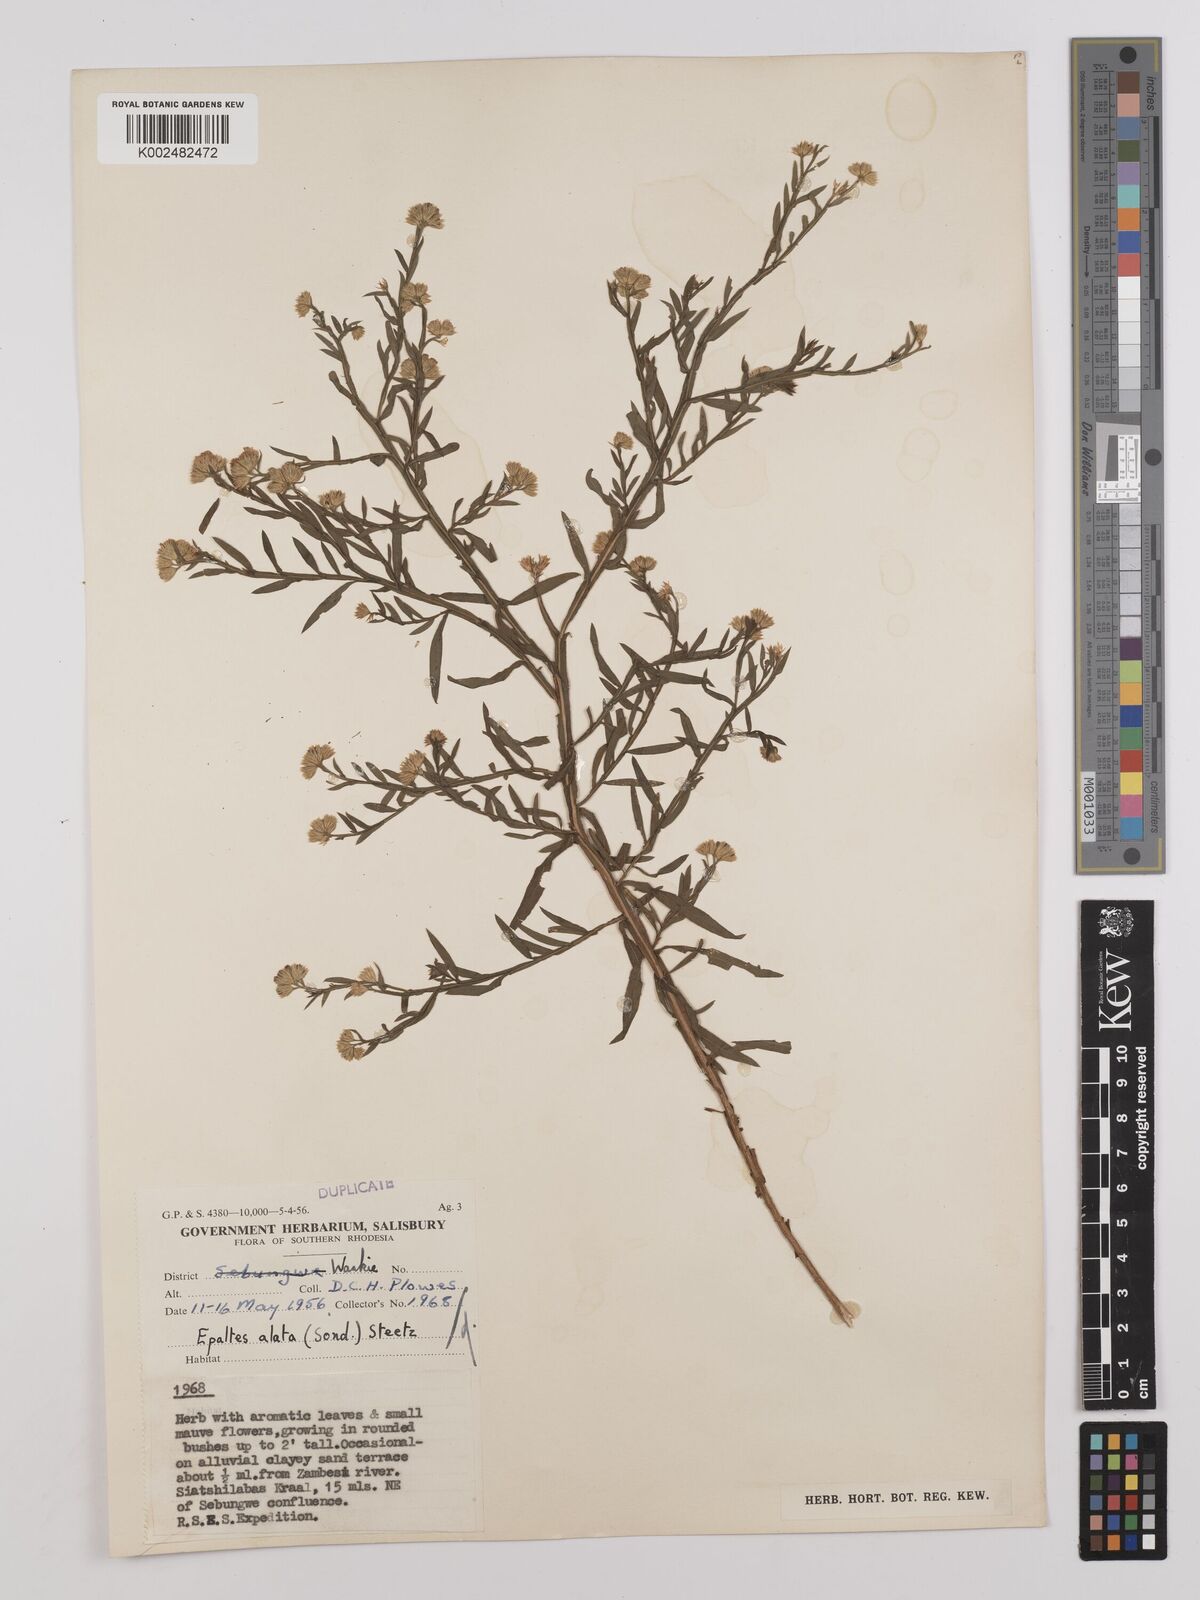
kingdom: Plantae
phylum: Tracheophyta
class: Magnoliopsida
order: Asterales
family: Asteraceae
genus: Litogyne
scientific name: Litogyne gariepina
